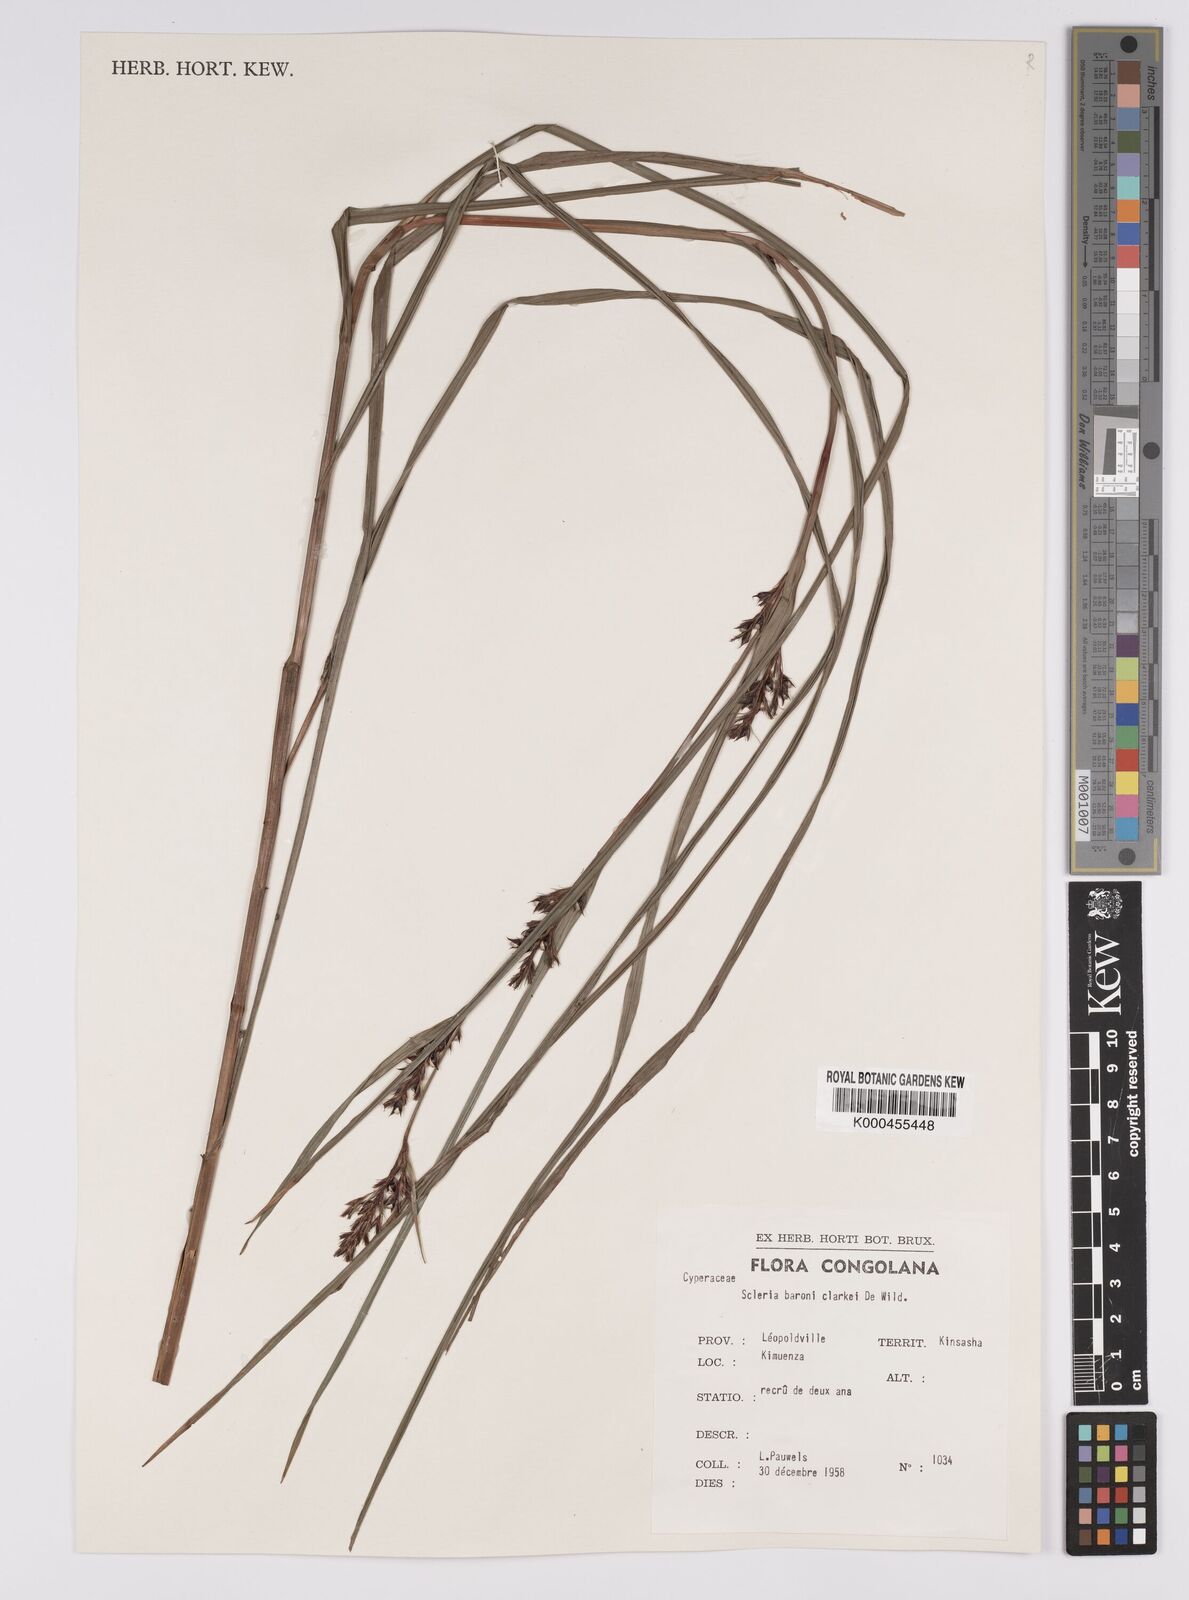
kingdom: Plantae
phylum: Tracheophyta
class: Liliopsida
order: Poales
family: Cyperaceae
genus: Scleria
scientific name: Scleria iostephana
